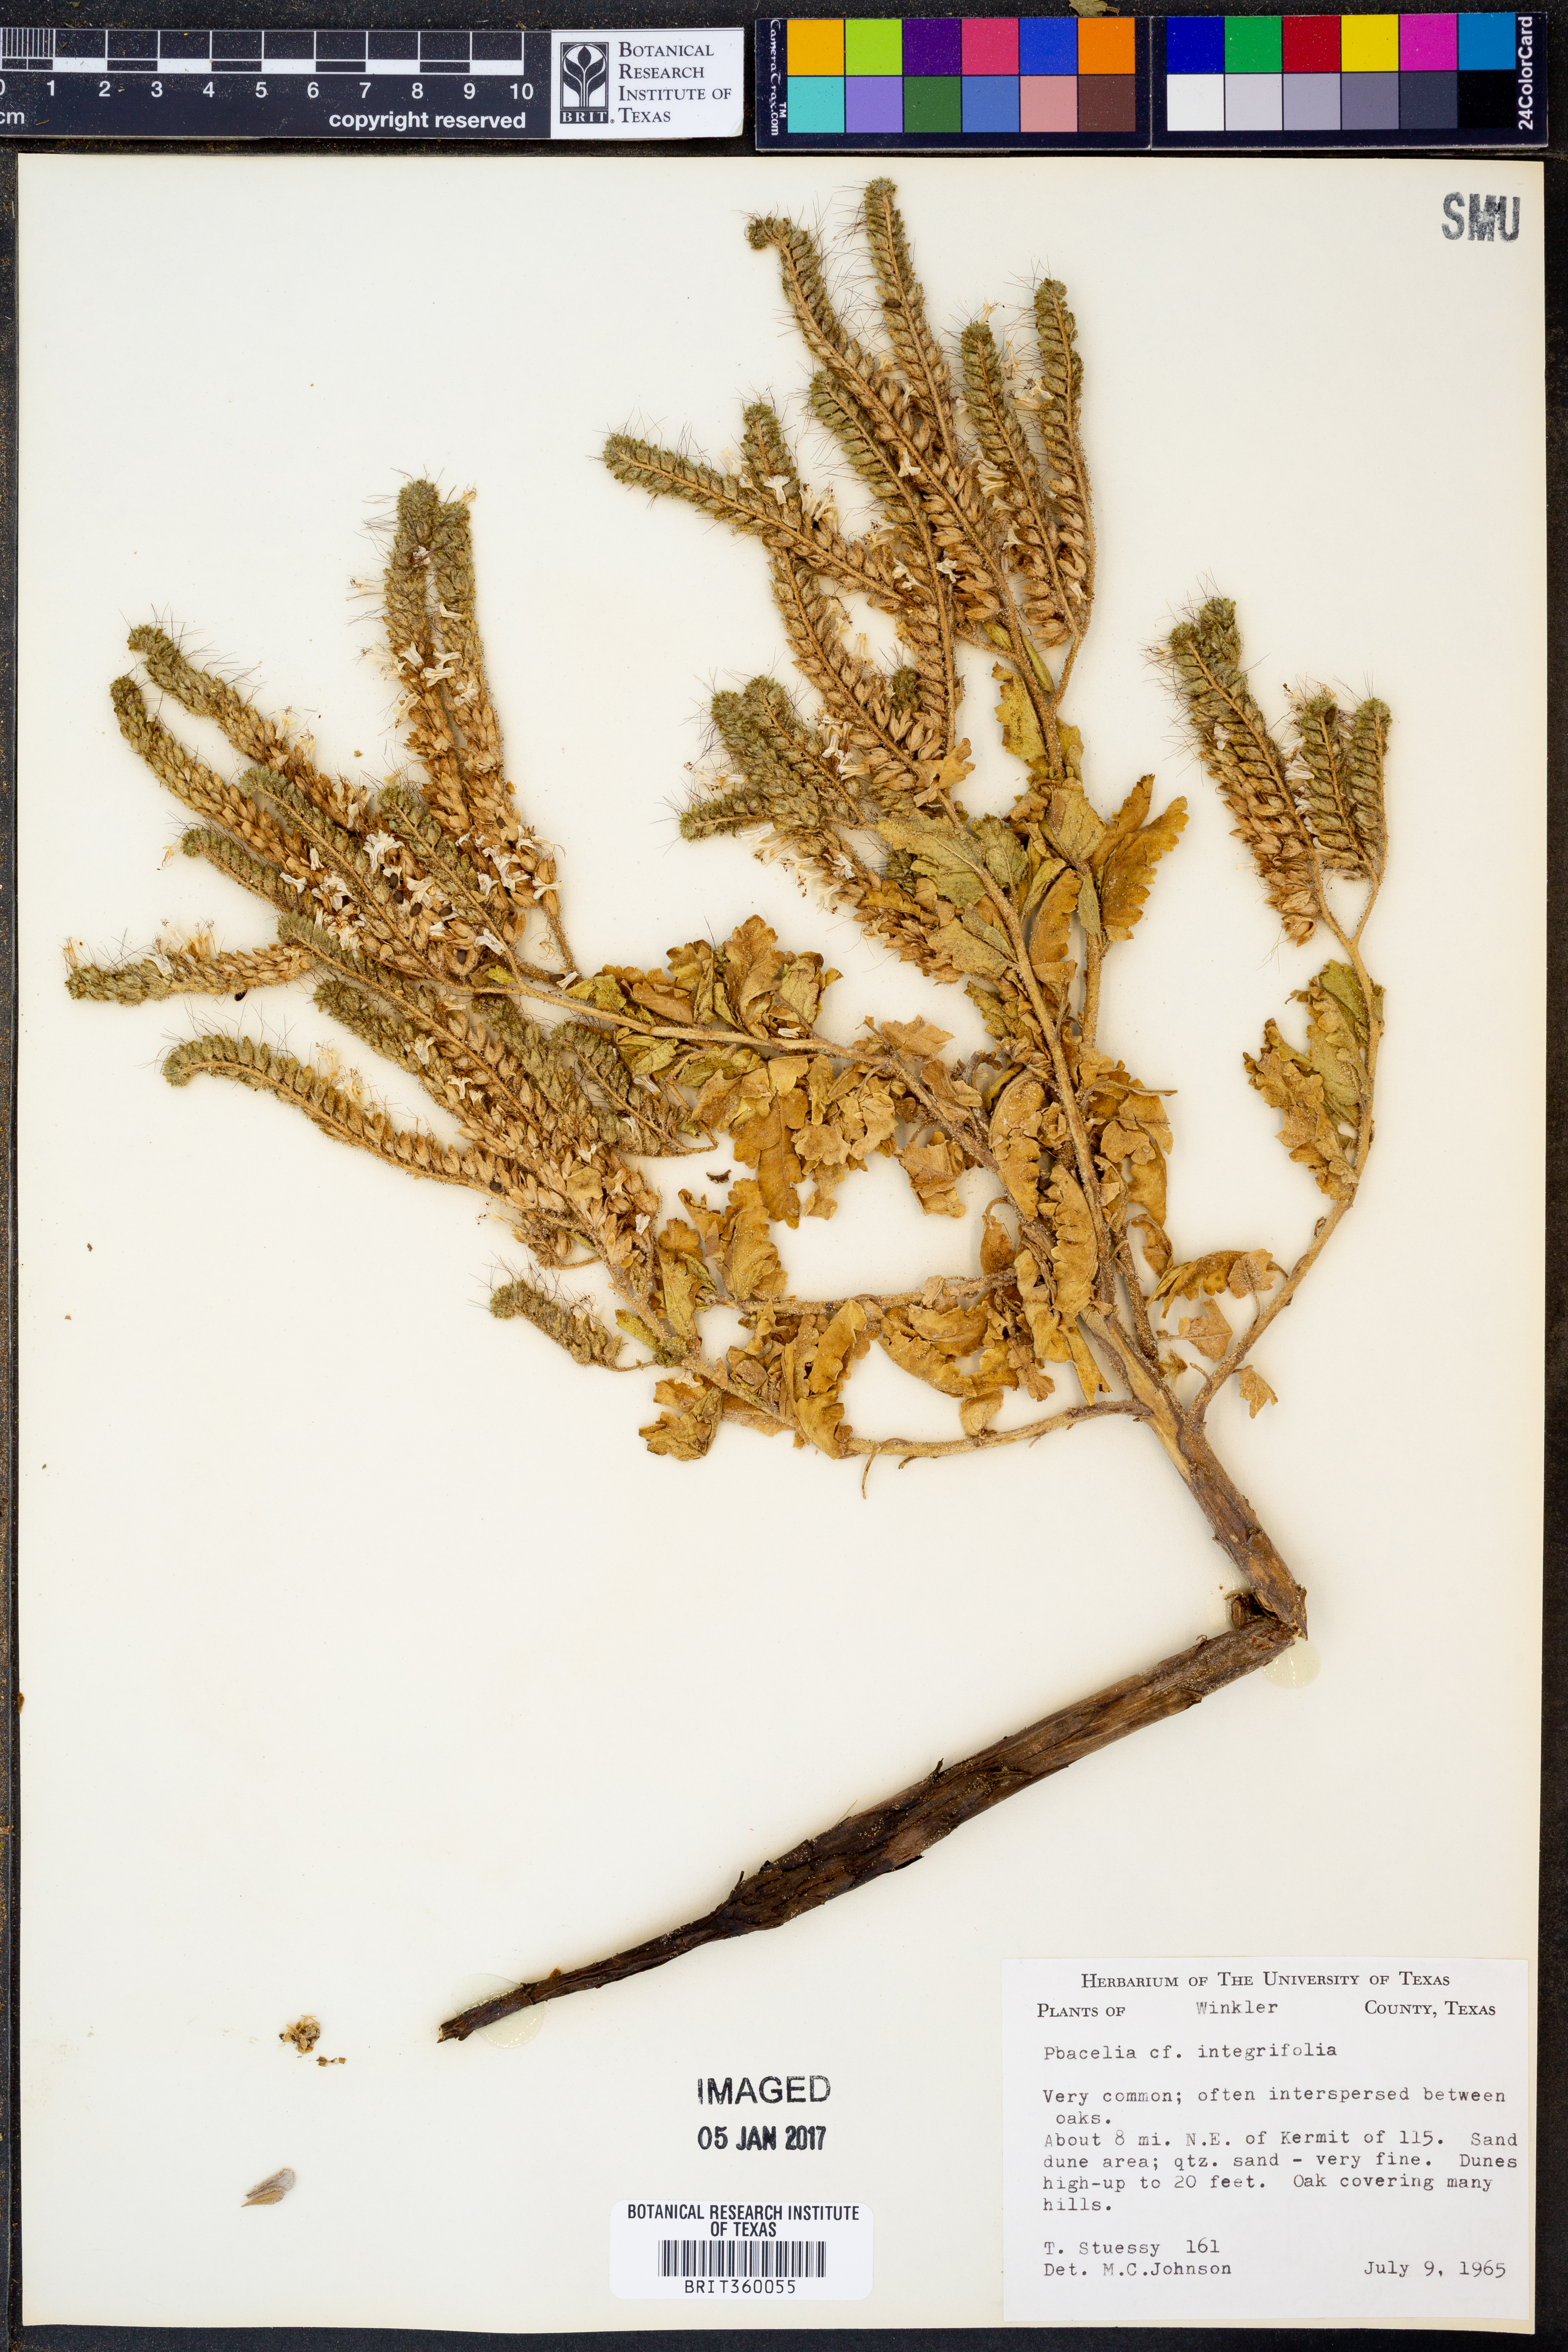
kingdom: Plantae
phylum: Tracheophyta
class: Magnoliopsida
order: Boraginales
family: Hydrophyllaceae
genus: Phacelia
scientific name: Phacelia integrifolia
